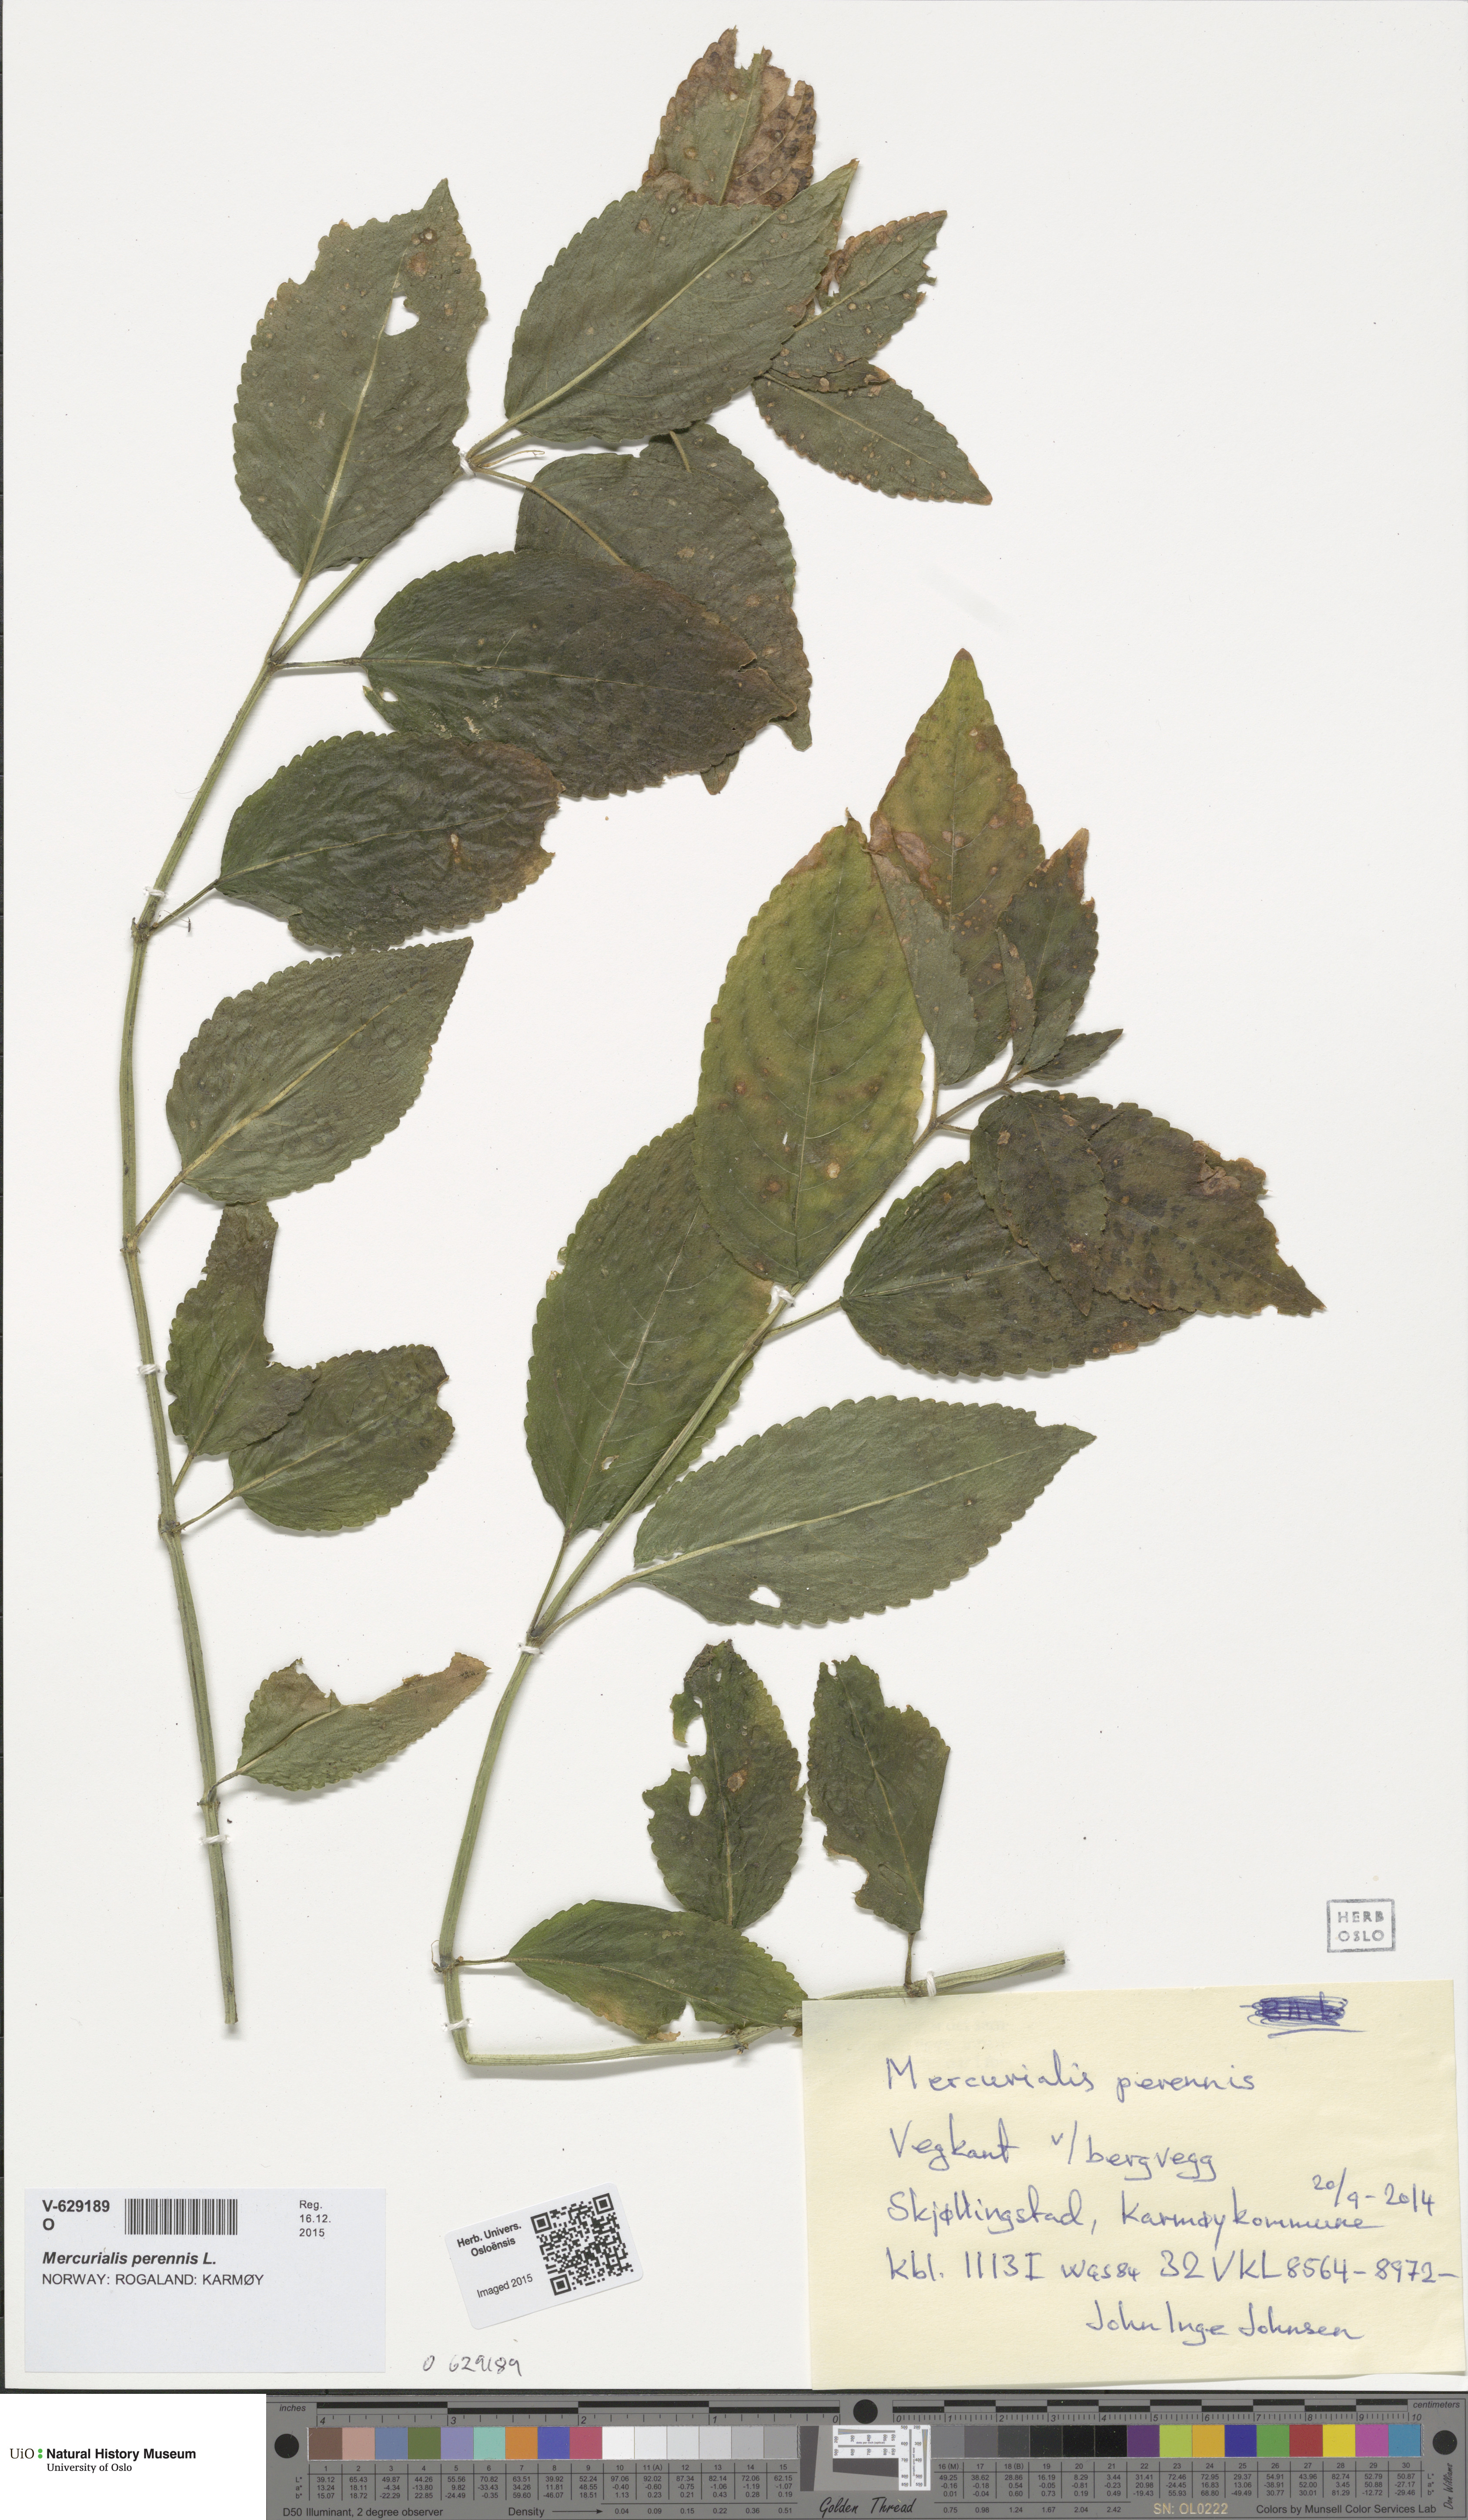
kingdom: Plantae
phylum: Tracheophyta
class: Magnoliopsida
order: Malpighiales
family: Euphorbiaceae
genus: Mercurialis
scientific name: Mercurialis perennis
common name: Dog mercury
